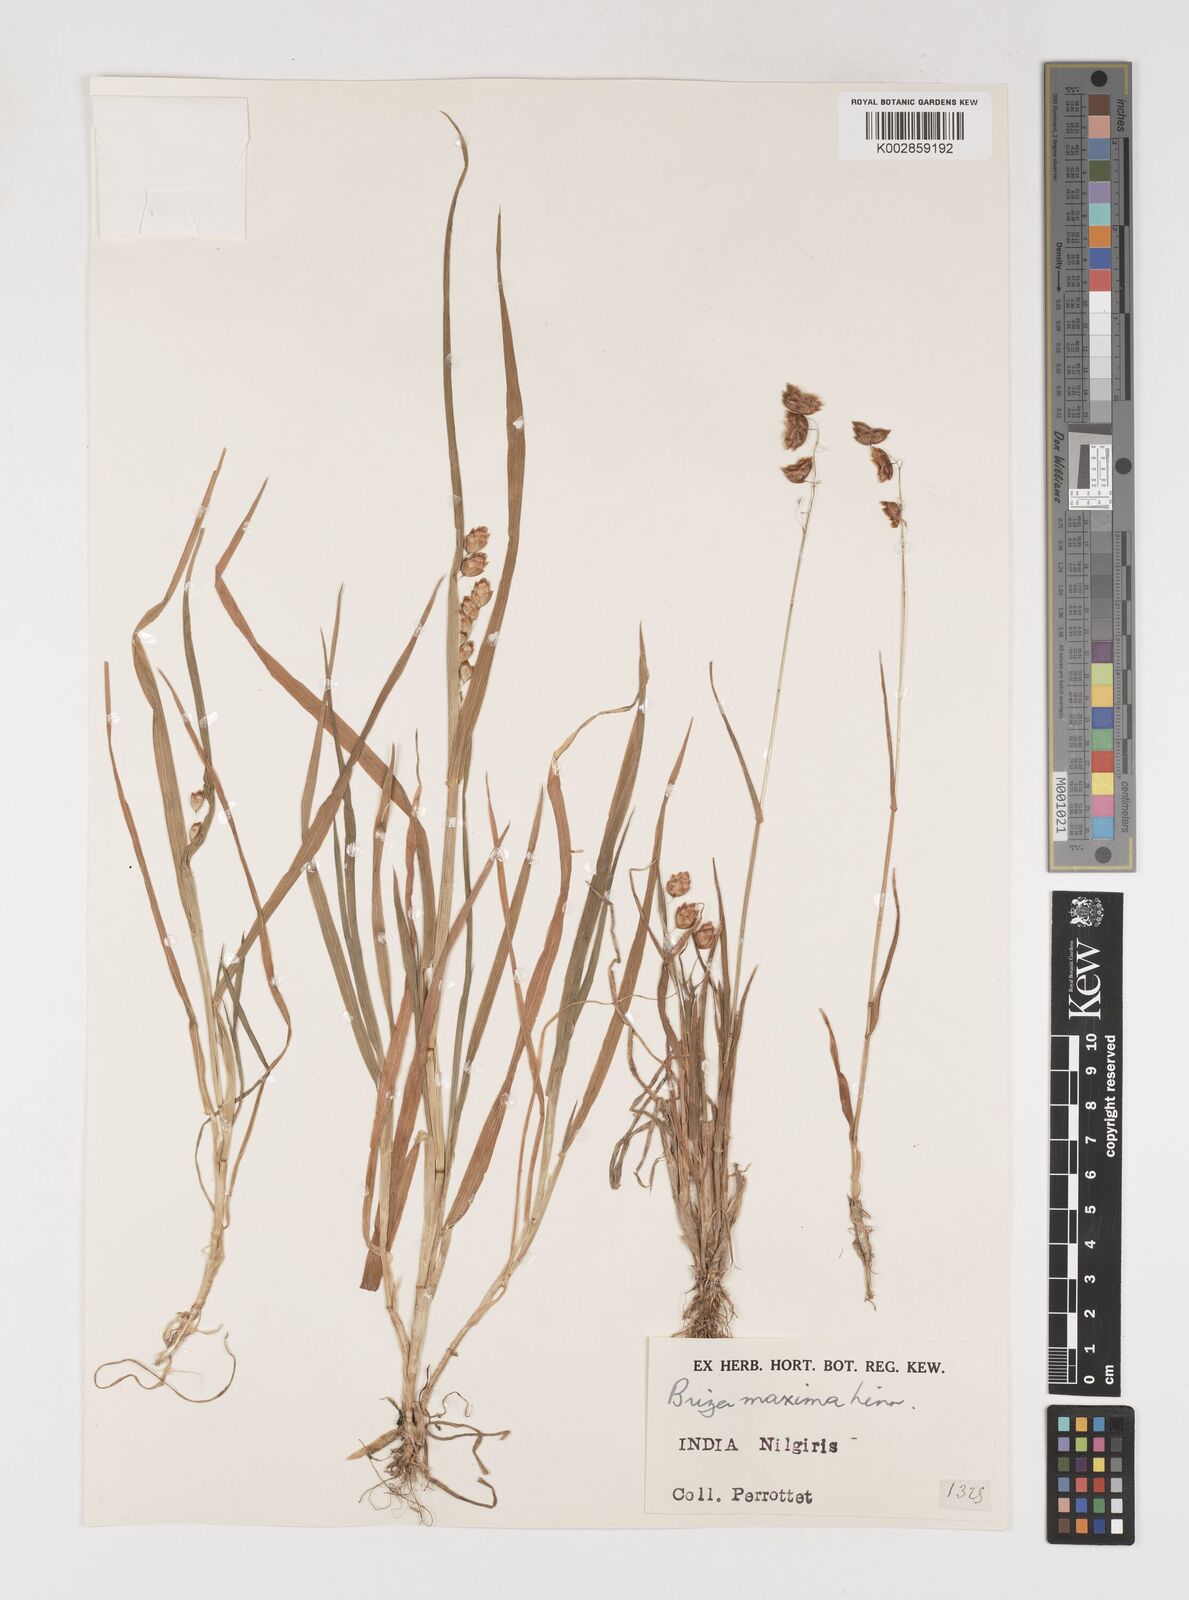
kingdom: Plantae
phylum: Tracheophyta
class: Liliopsida
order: Poales
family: Poaceae
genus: Briza
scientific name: Briza maxima
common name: Big quakinggrass
